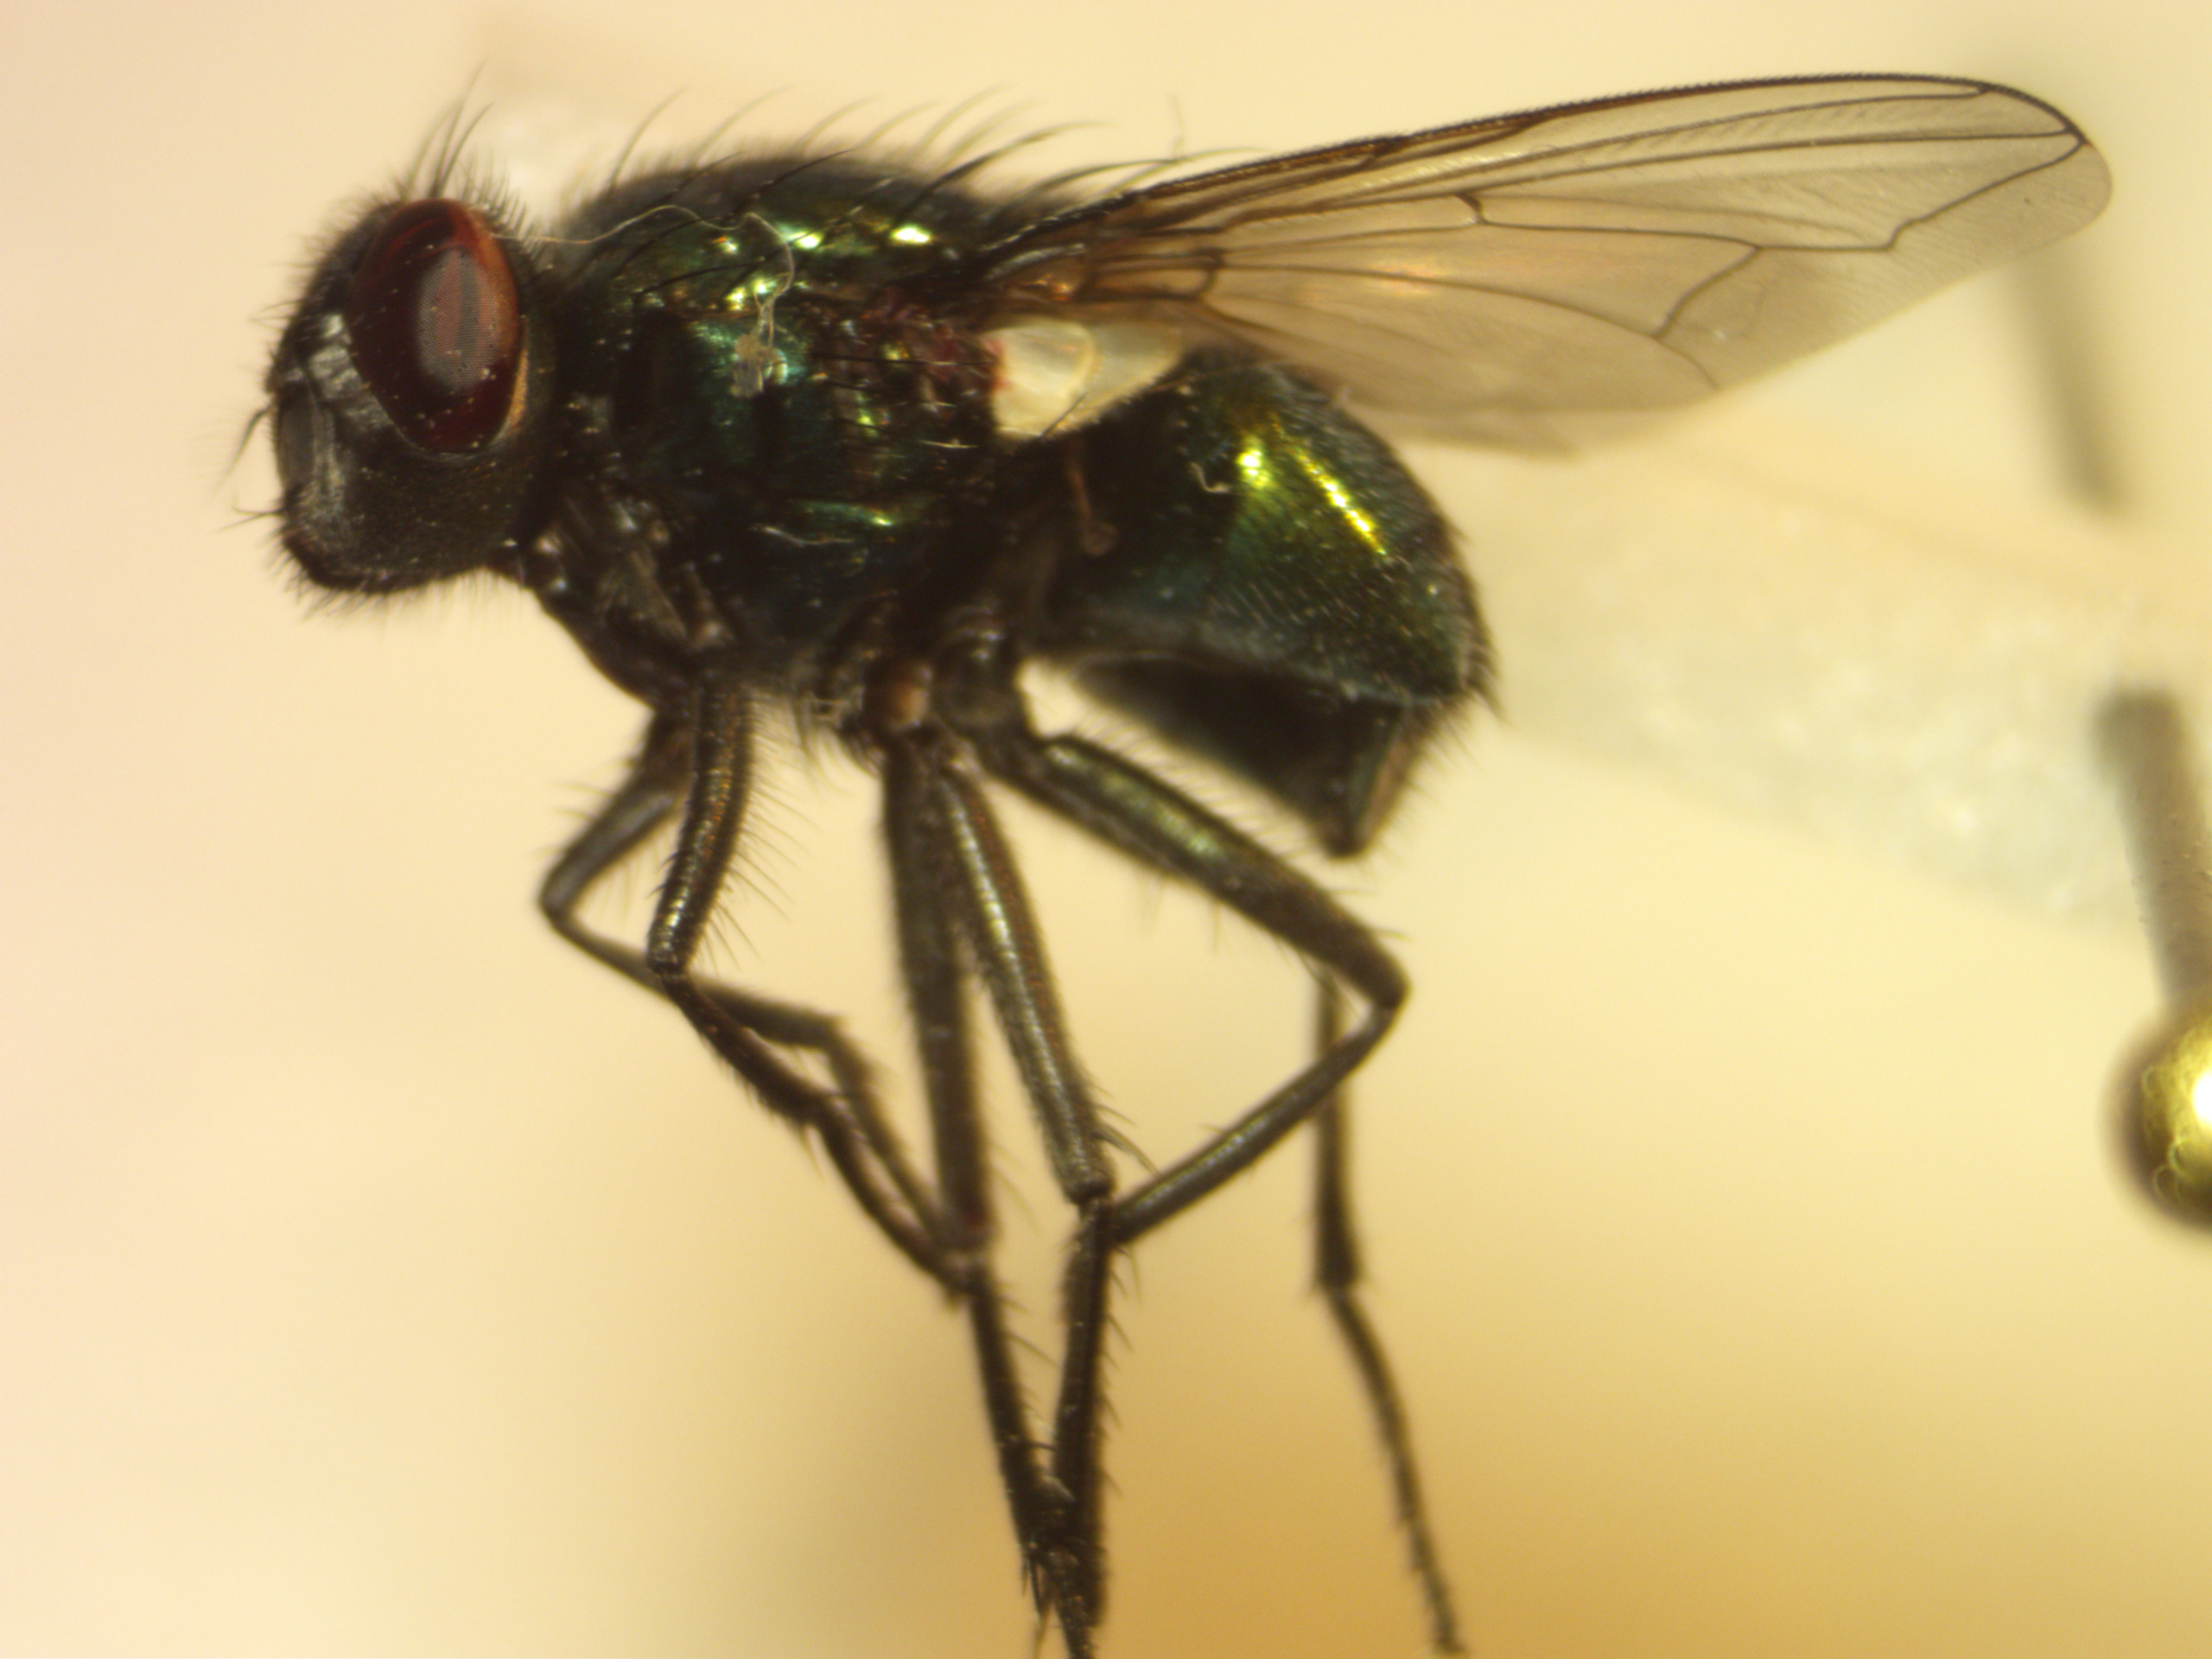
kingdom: Animalia
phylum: Arthropoda
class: Insecta
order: Diptera
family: Muscidae
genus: Neomyia
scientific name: Neomyia viridescens
